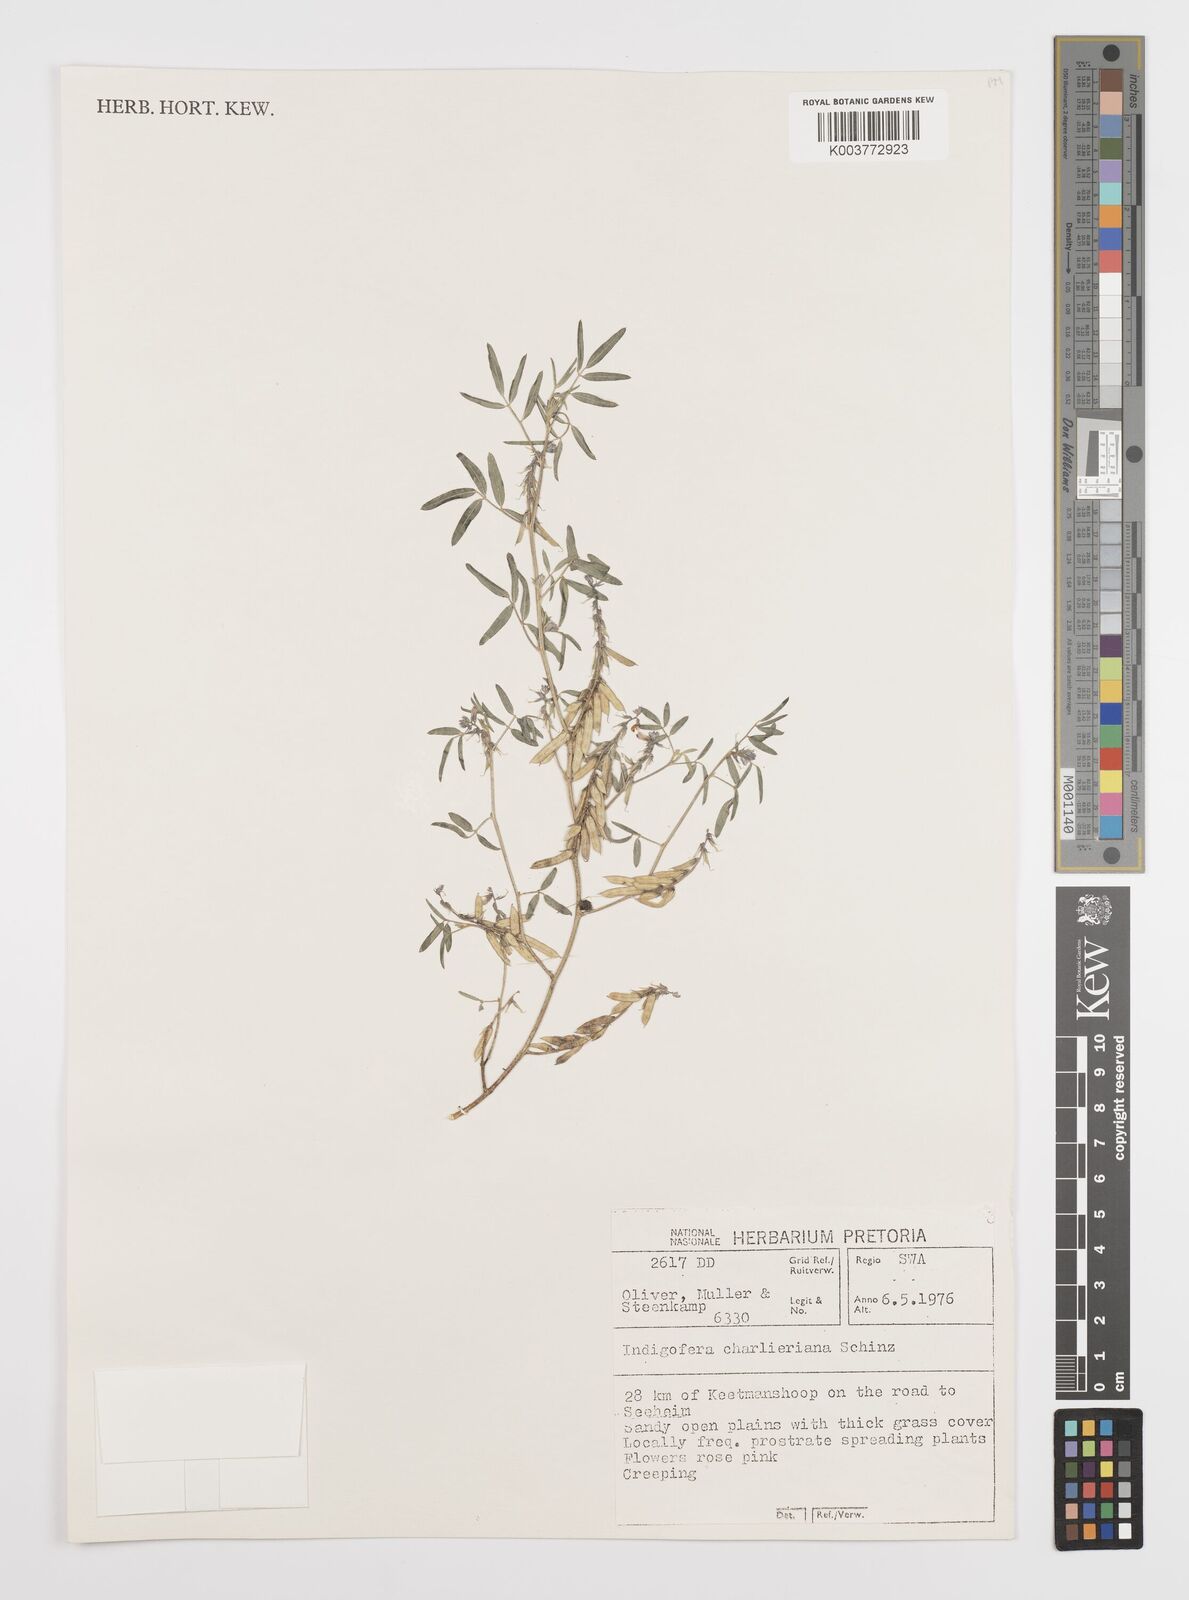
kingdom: Plantae
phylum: Tracheophyta
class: Magnoliopsida
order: Fabales
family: Fabaceae
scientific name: Fabaceae
